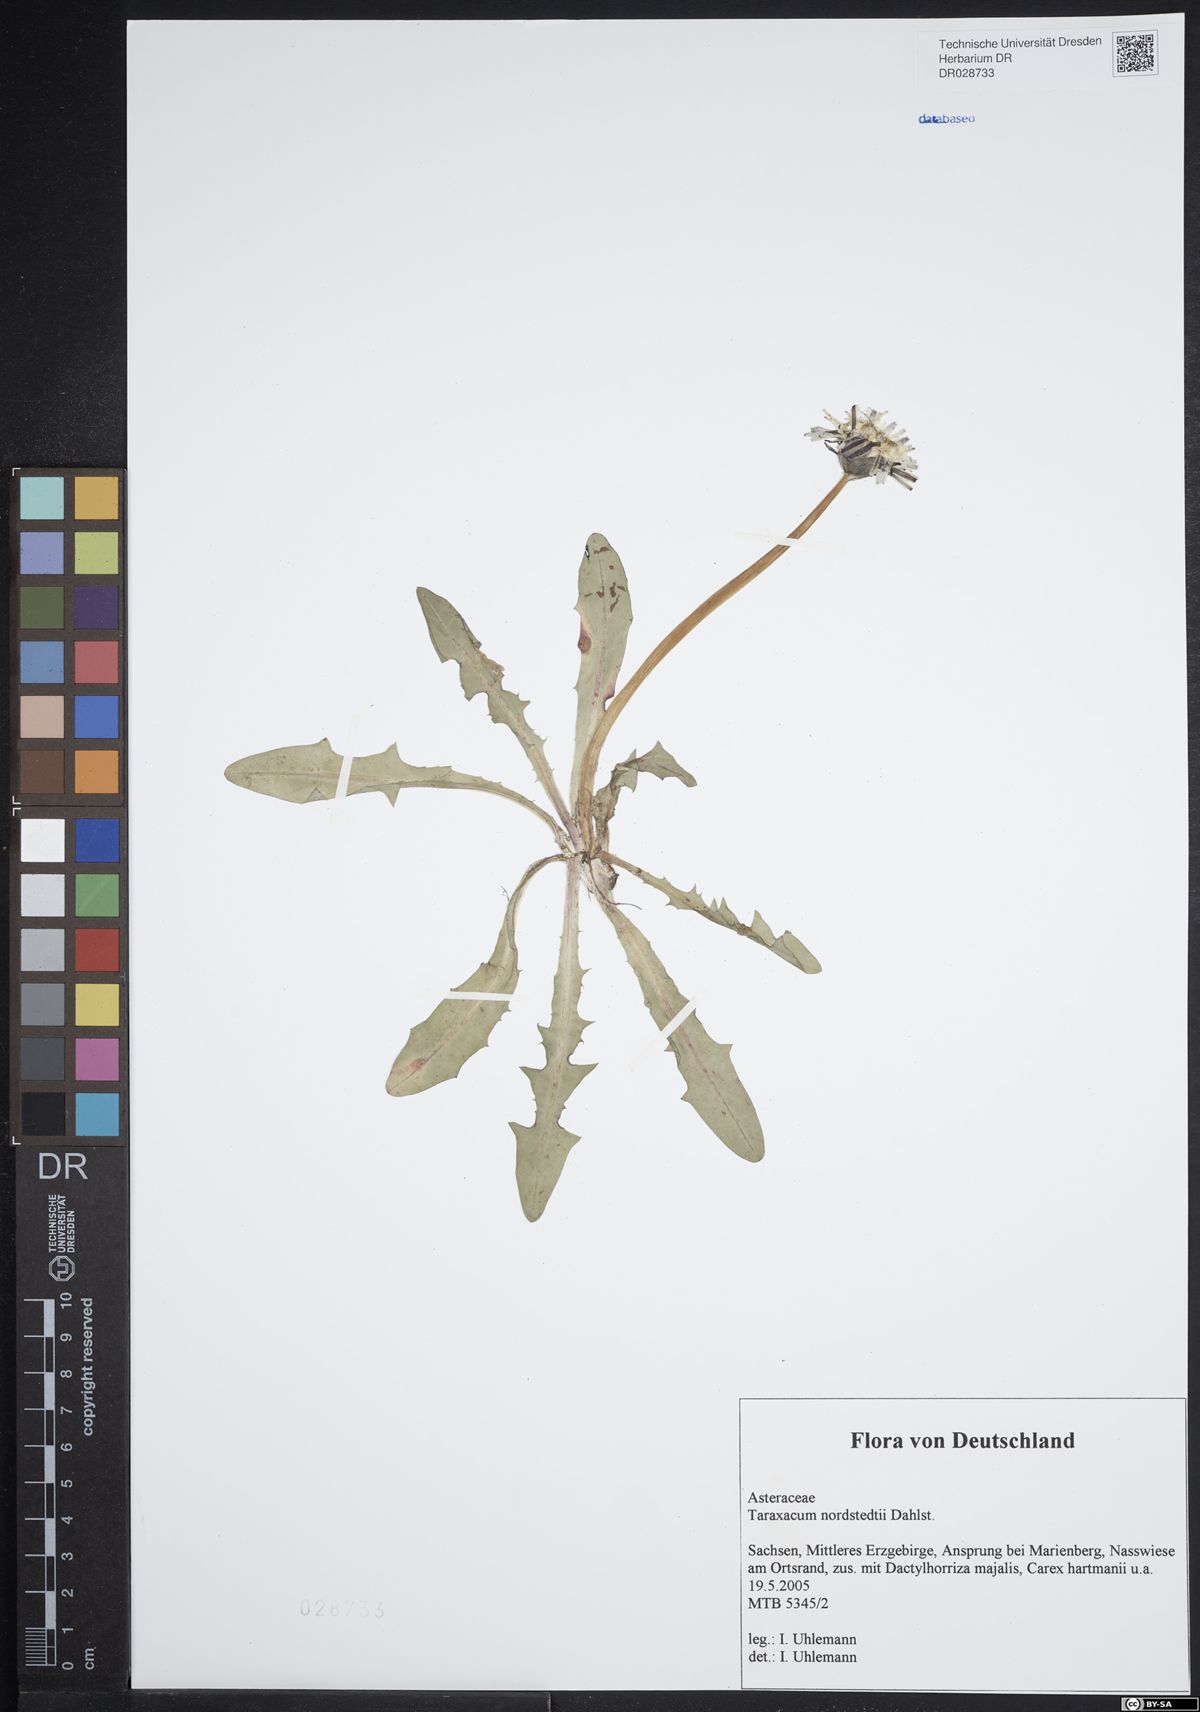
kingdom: Plantae
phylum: Tracheophyta
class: Magnoliopsida
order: Asterales
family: Asteraceae
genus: Taraxacum
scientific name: Taraxacum nordstedtii
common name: Nordstedt's dandelion
